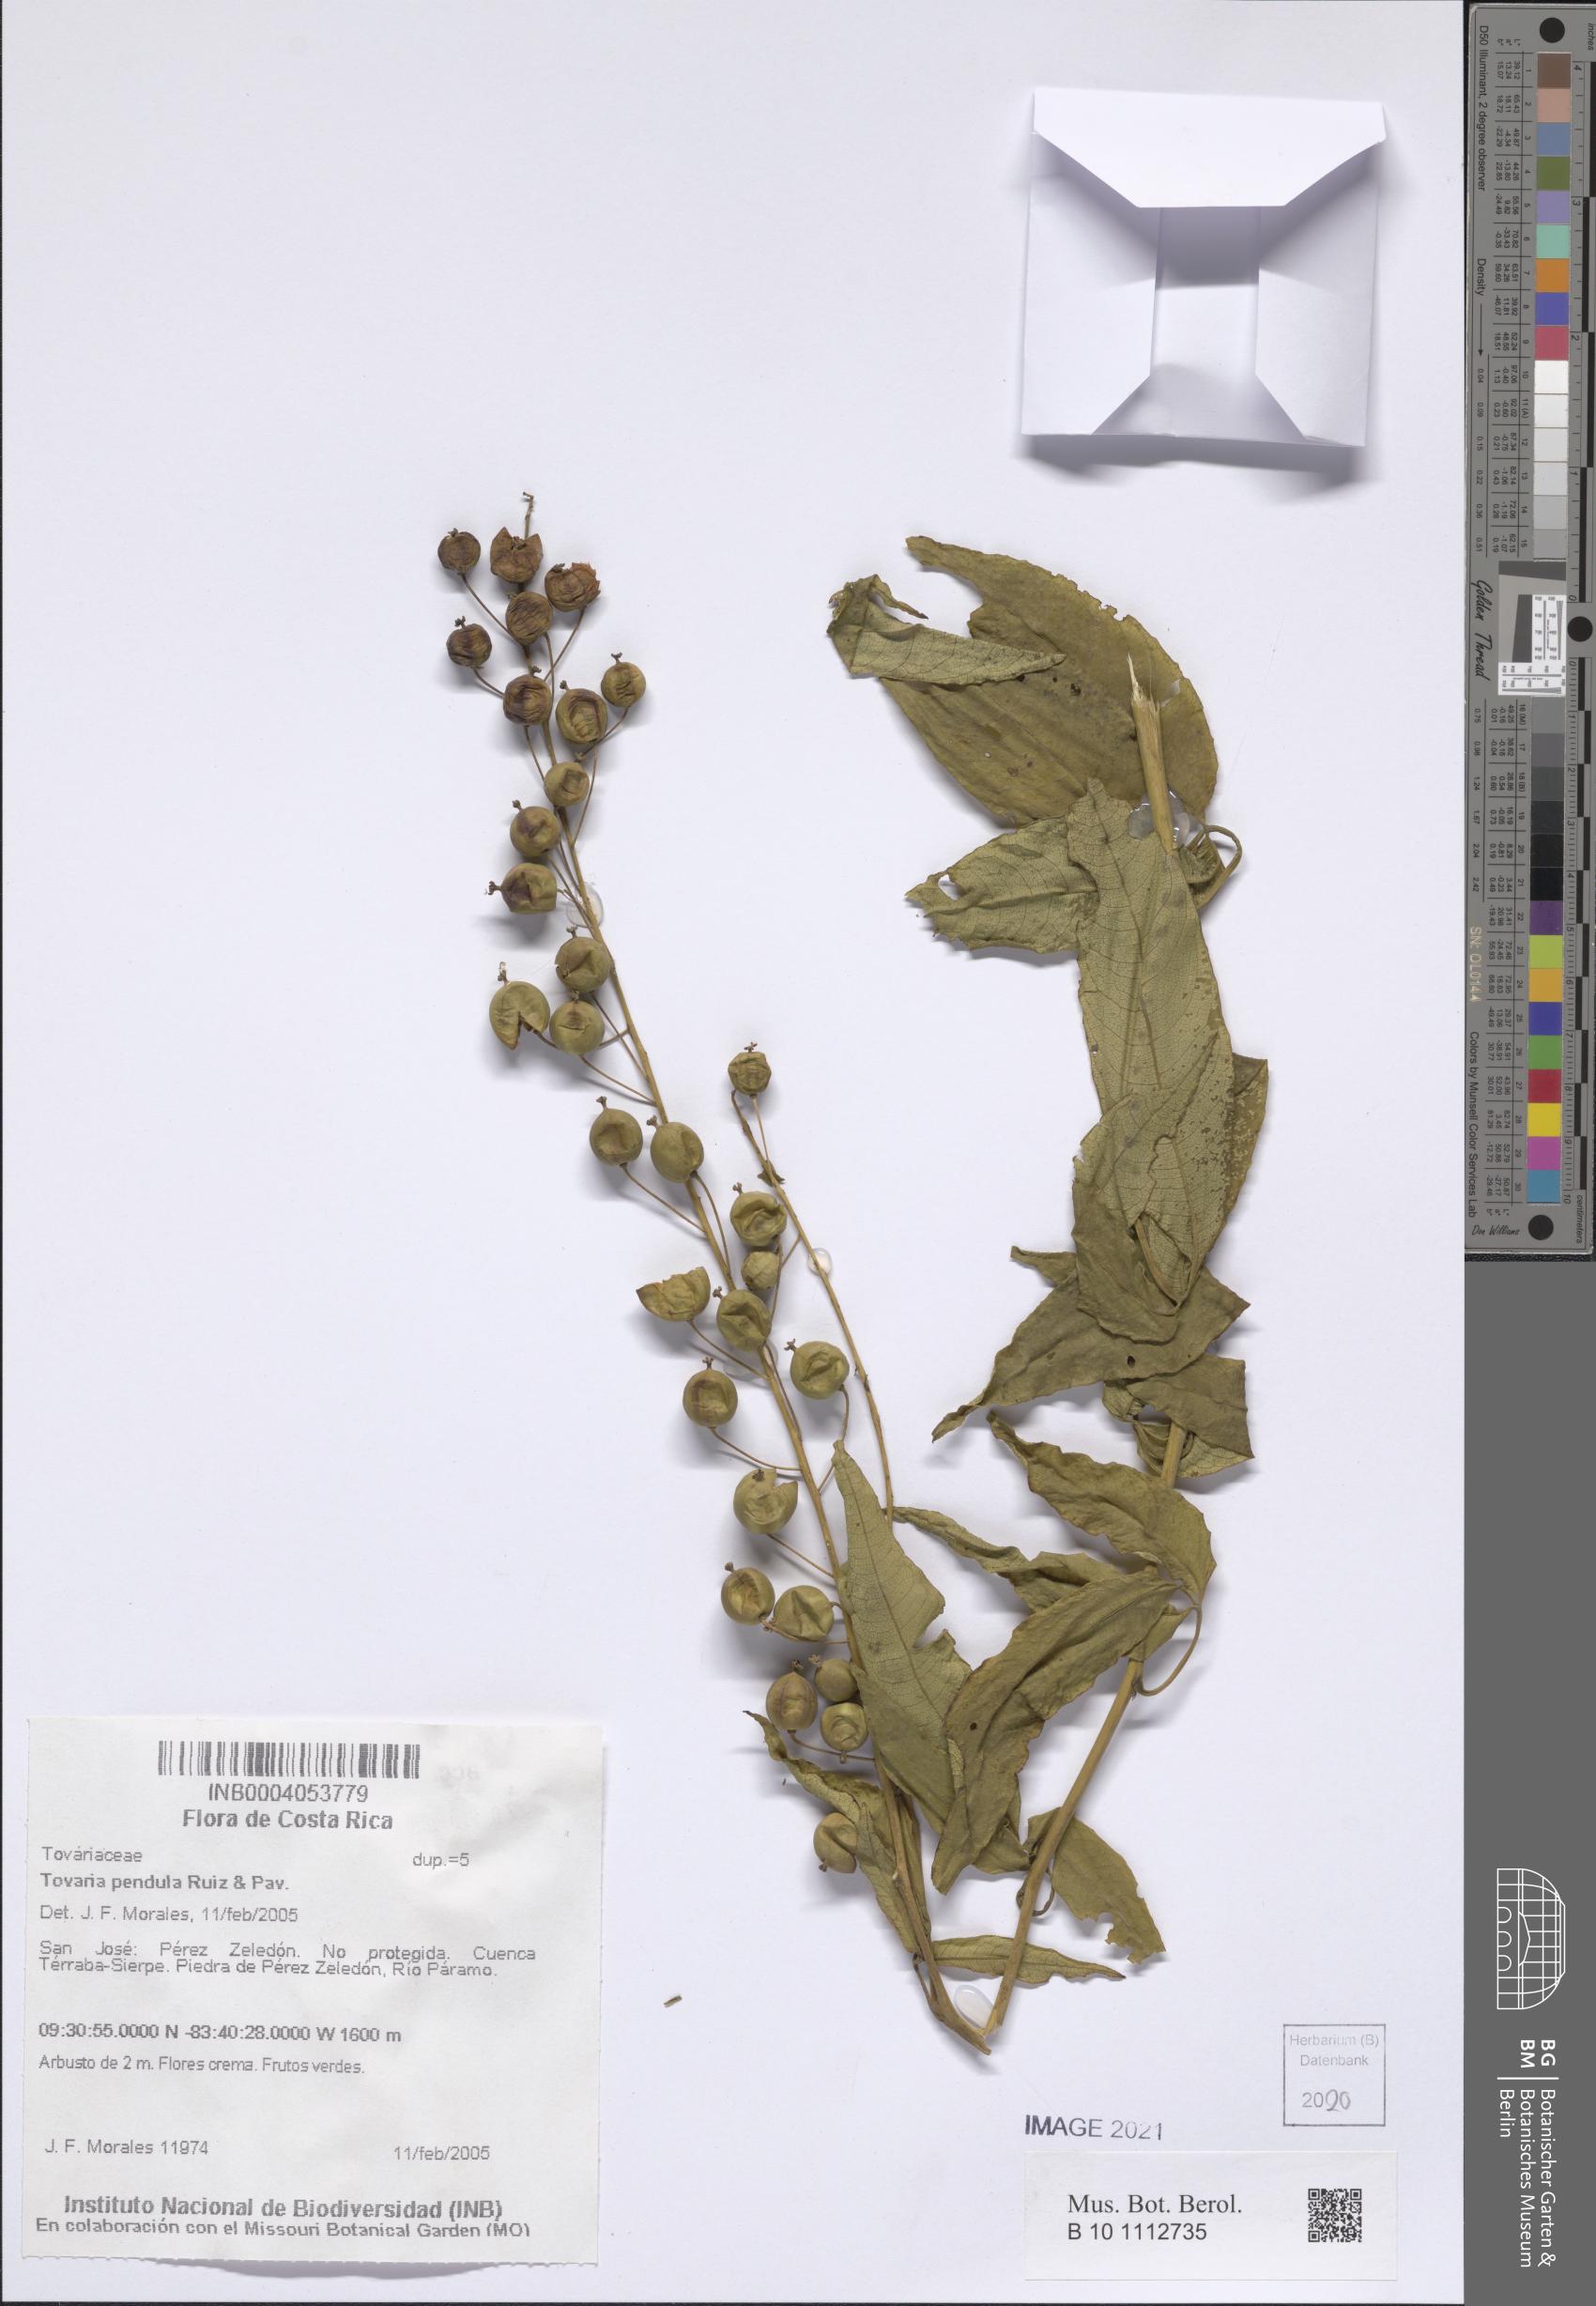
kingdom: Plantae
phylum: Tracheophyta
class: Magnoliopsida
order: Brassicales
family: Tovariaceae
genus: Tovaria
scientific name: Tovaria pendula
